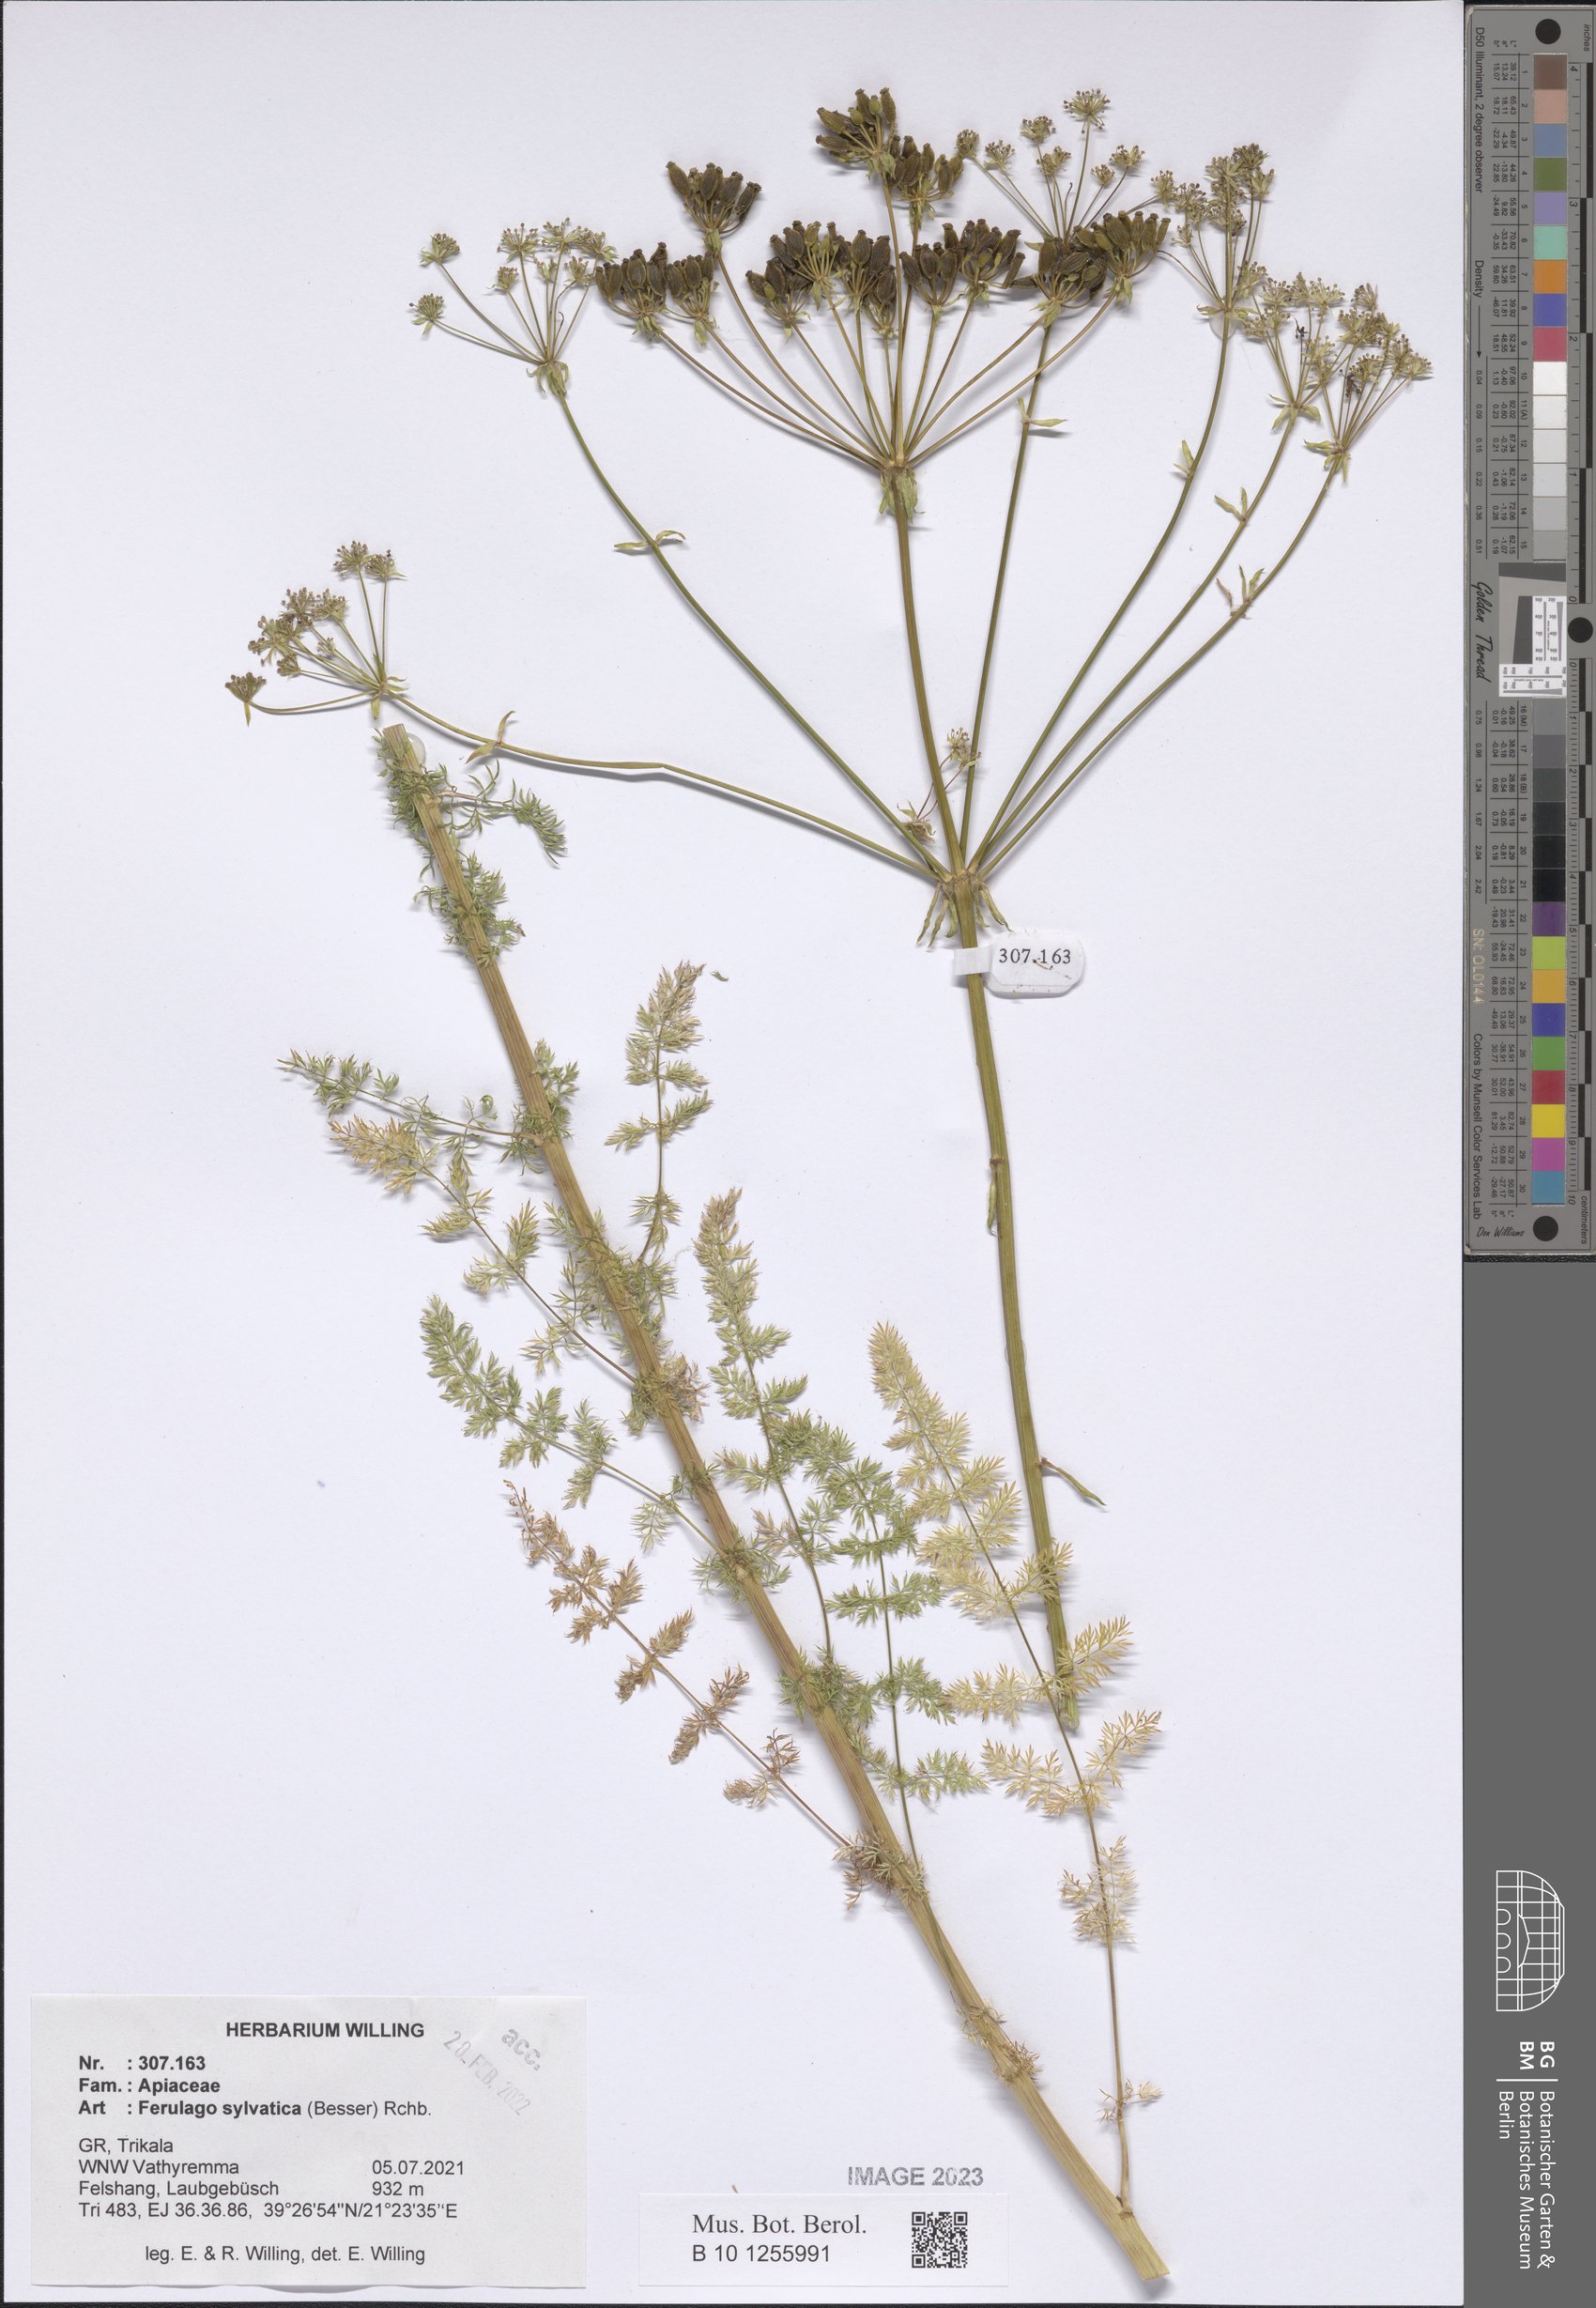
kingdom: Plantae
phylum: Tracheophyta
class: Magnoliopsida
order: Apiales
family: Apiaceae
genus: Ferulago
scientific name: Ferulago sylvatica
